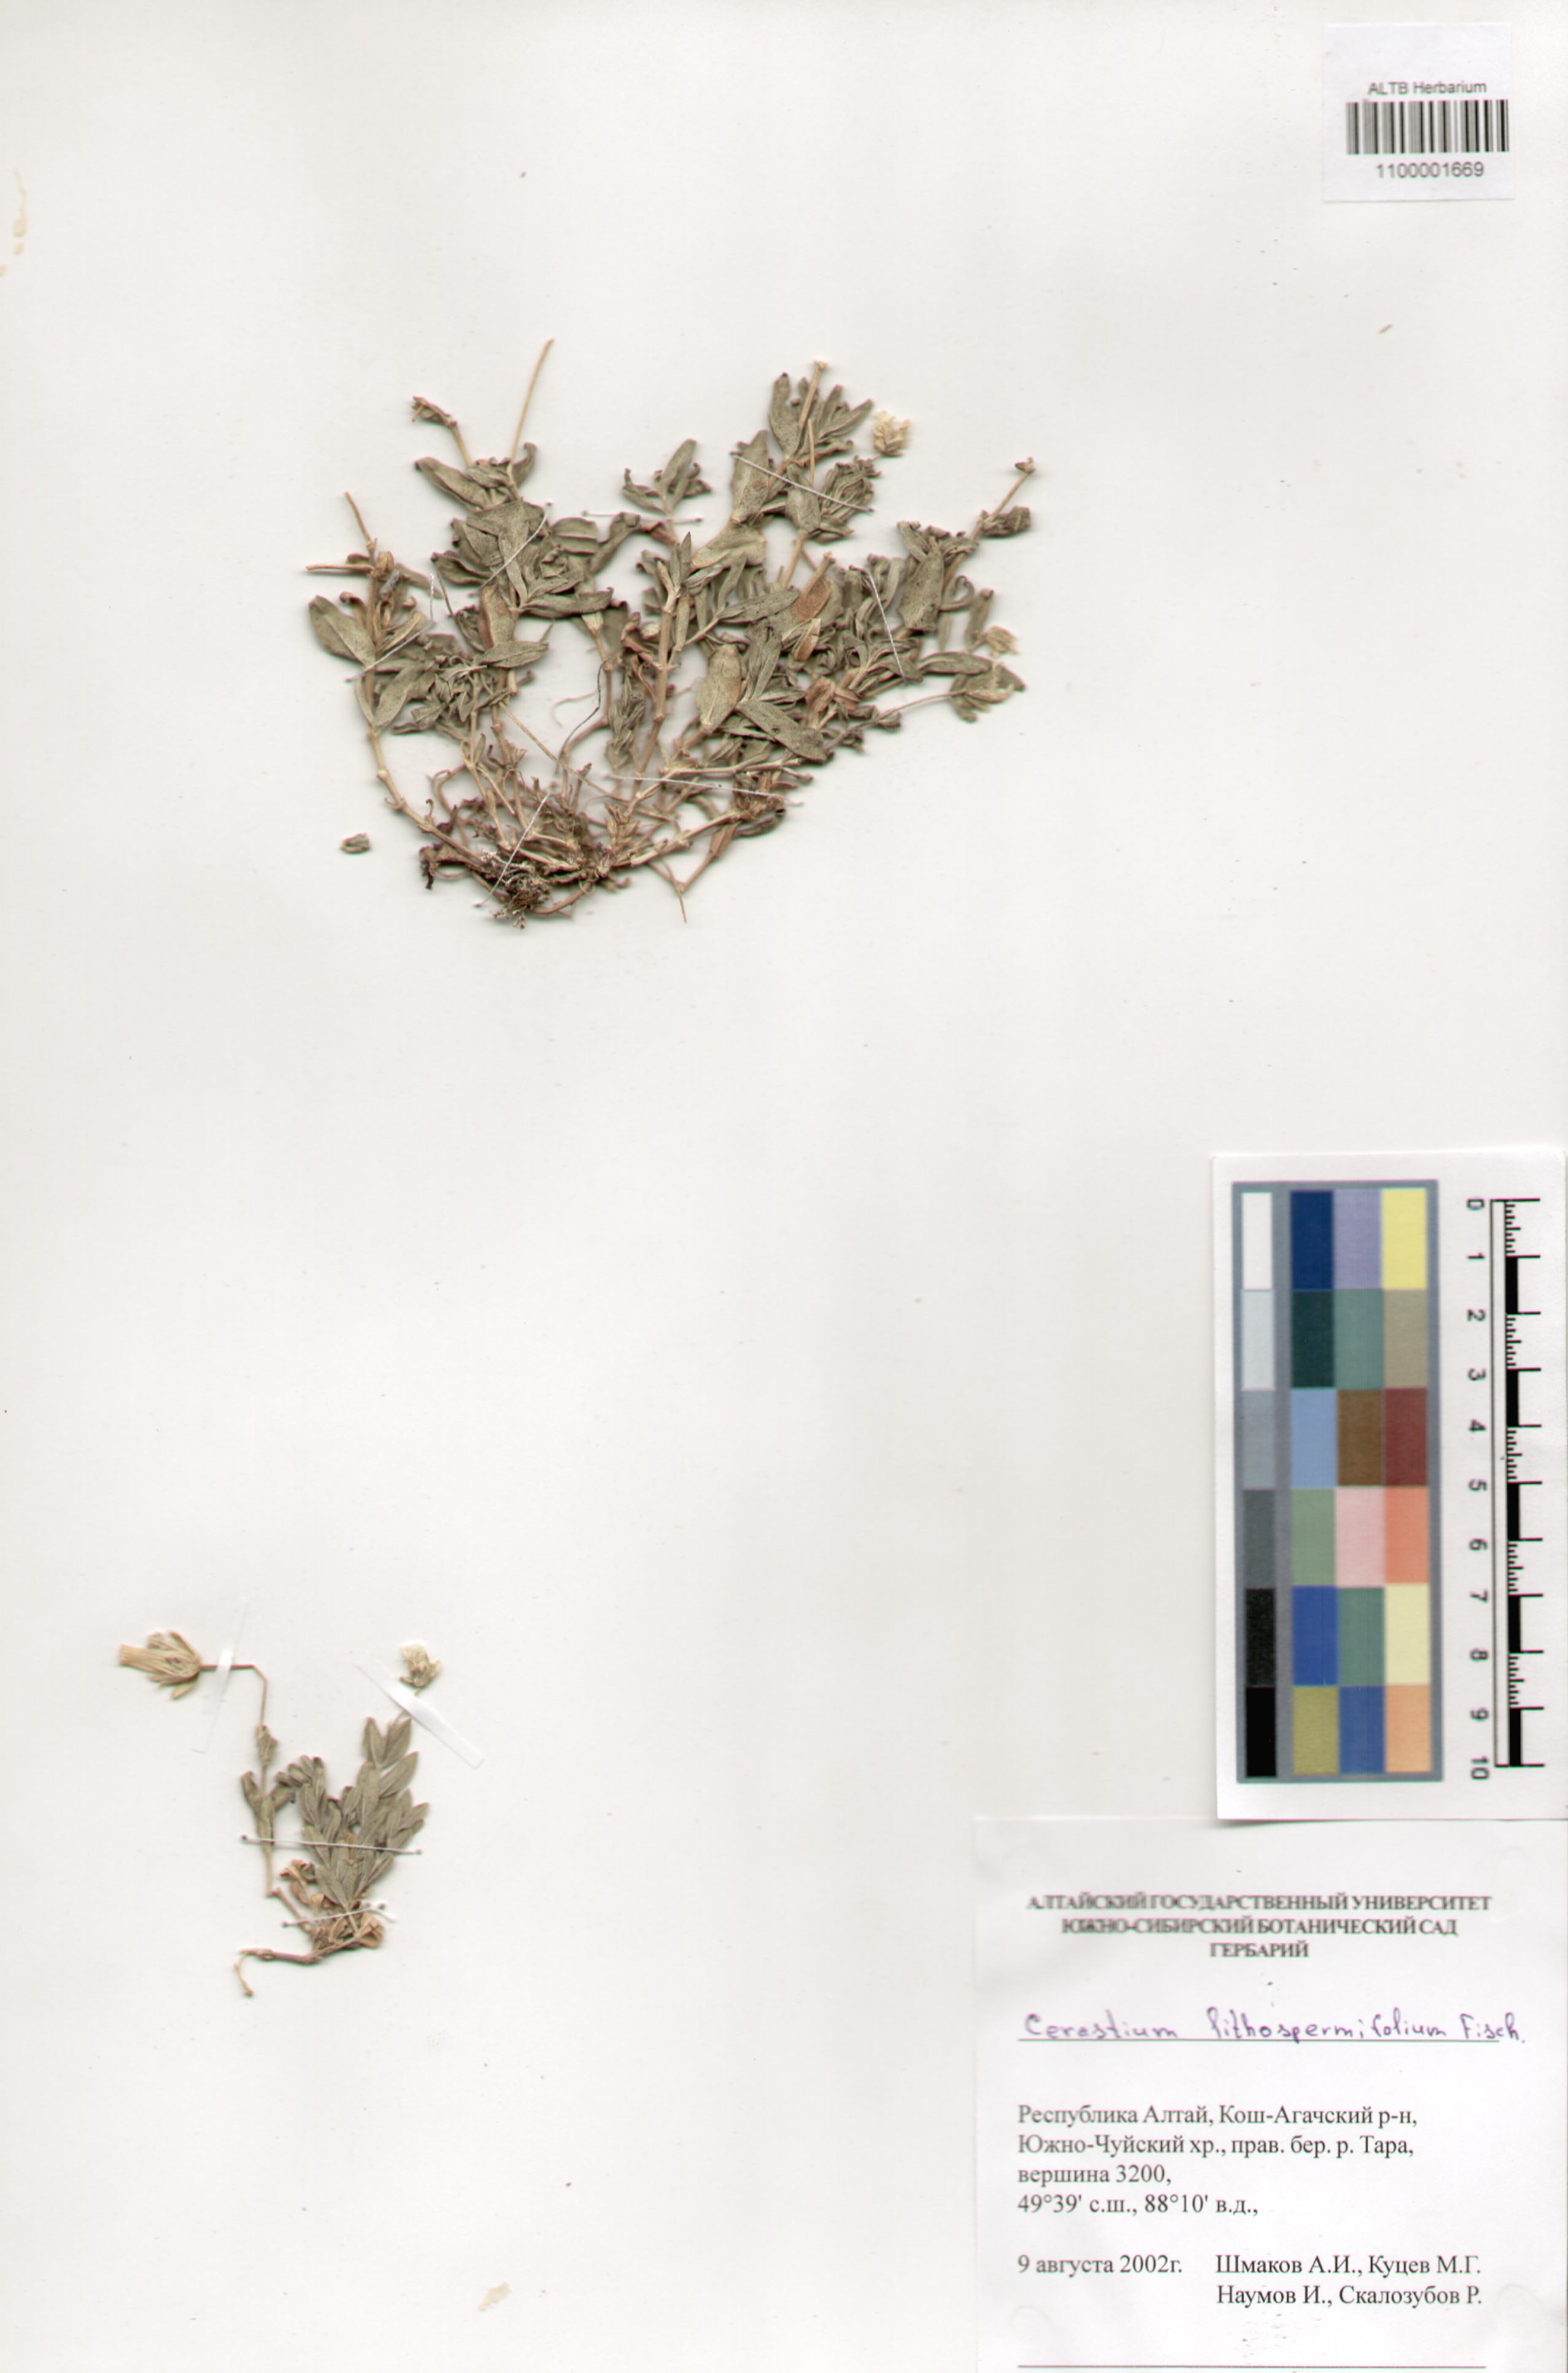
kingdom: Plantae
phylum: Tracheophyta
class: Magnoliopsida
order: Caryophyllales
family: Caryophyllaceae
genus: Cerastium
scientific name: Cerastium lithospermifolium
